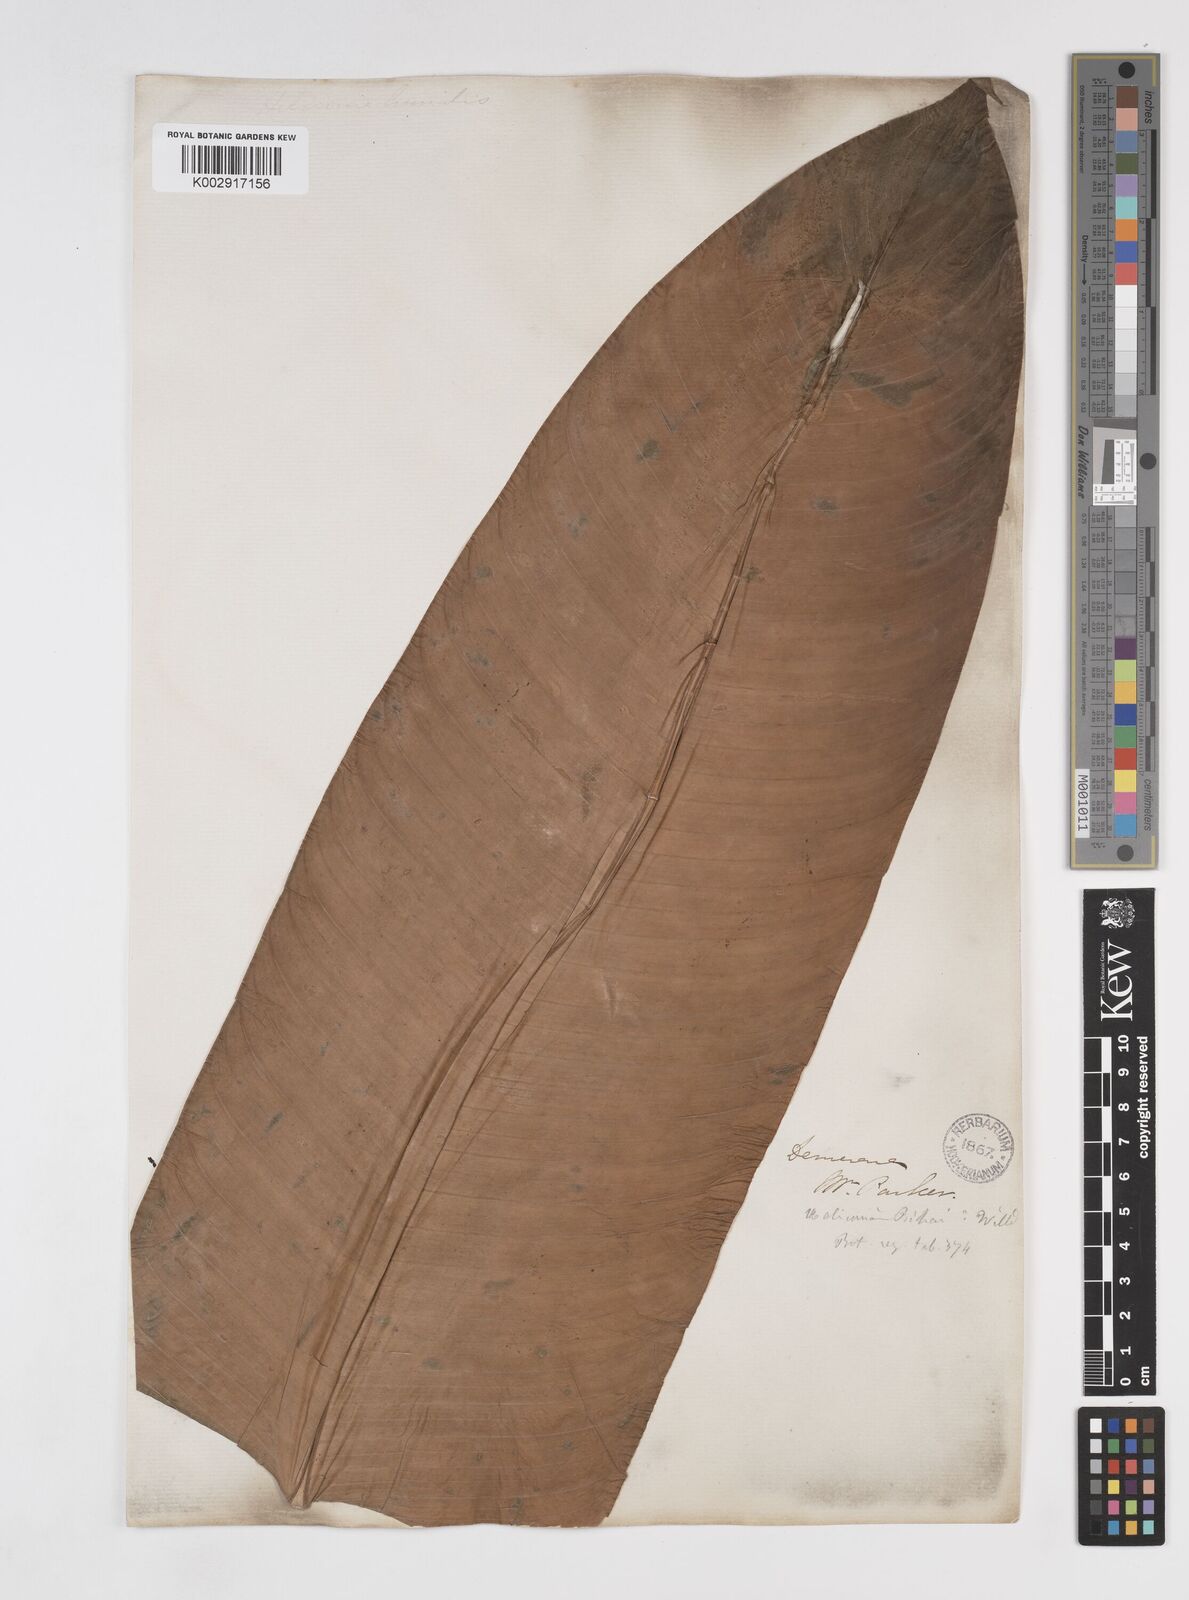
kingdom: Plantae
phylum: Tracheophyta
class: Liliopsida
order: Zingiberales
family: Heliconiaceae
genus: Heliconia
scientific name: Heliconia bihai
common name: Macaw flower
